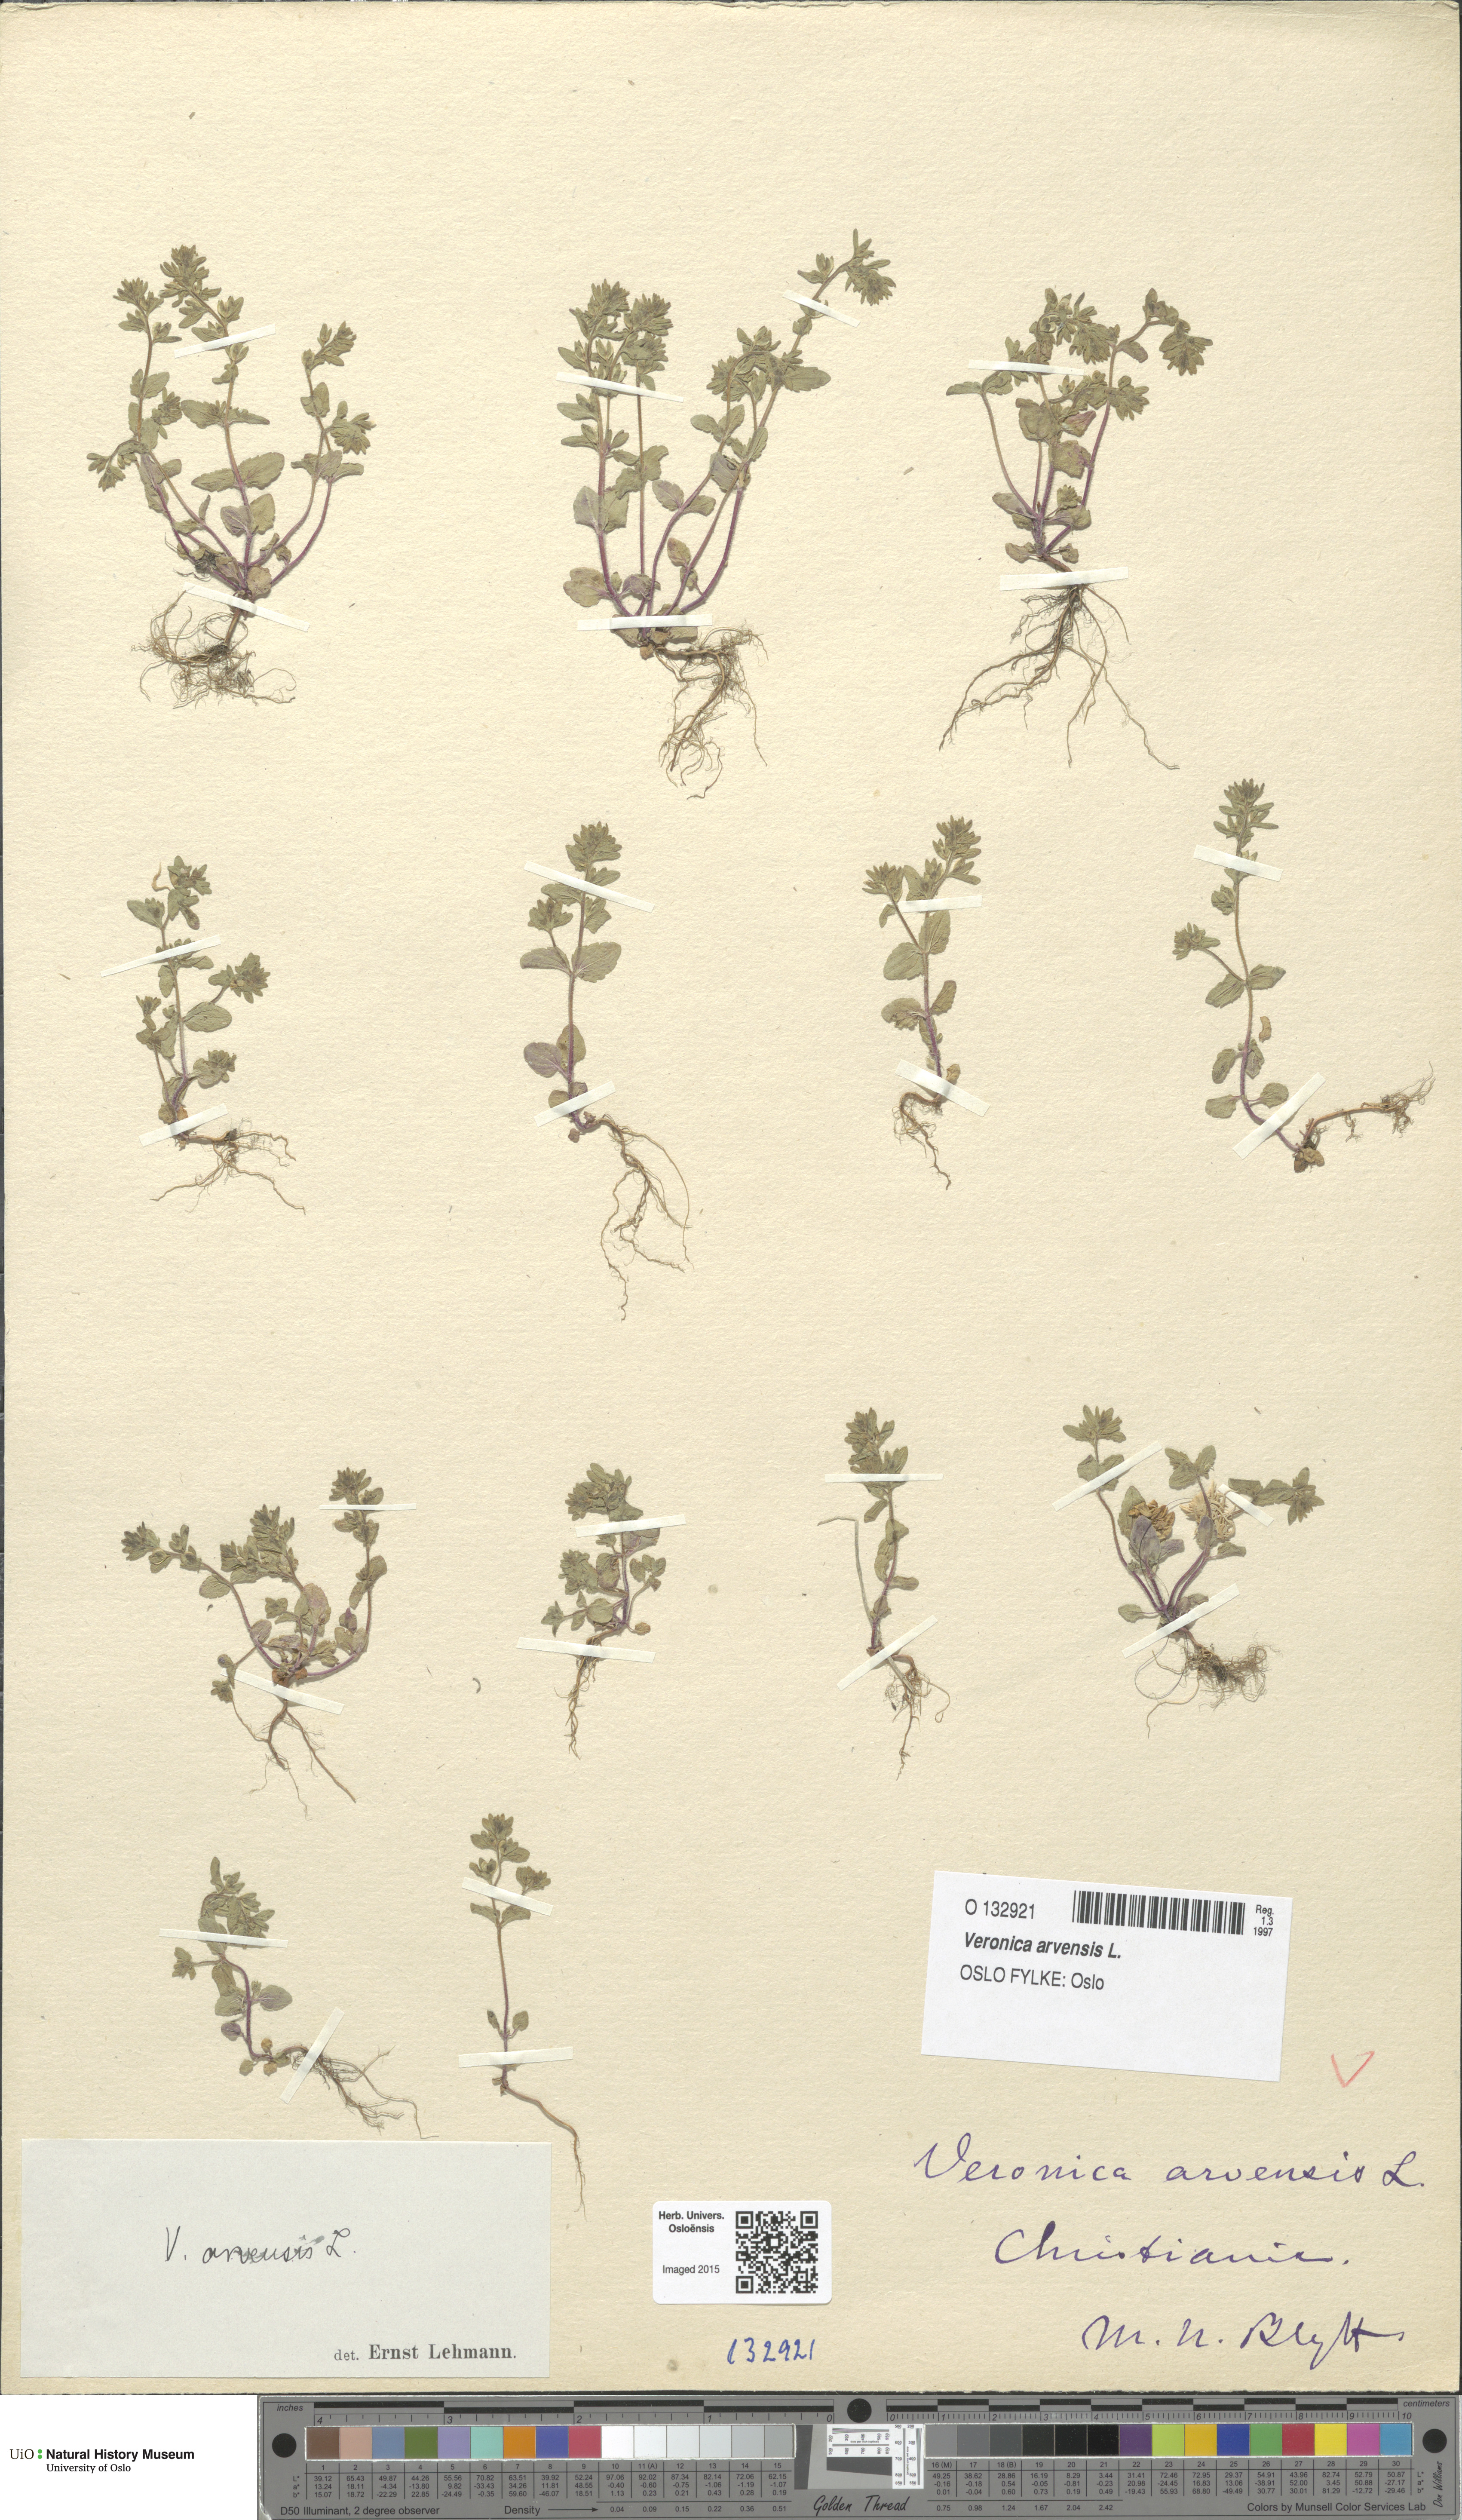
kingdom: Plantae
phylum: Tracheophyta
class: Magnoliopsida
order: Lamiales
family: Plantaginaceae
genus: Veronica
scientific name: Veronica arvensis
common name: Corn speedwell
